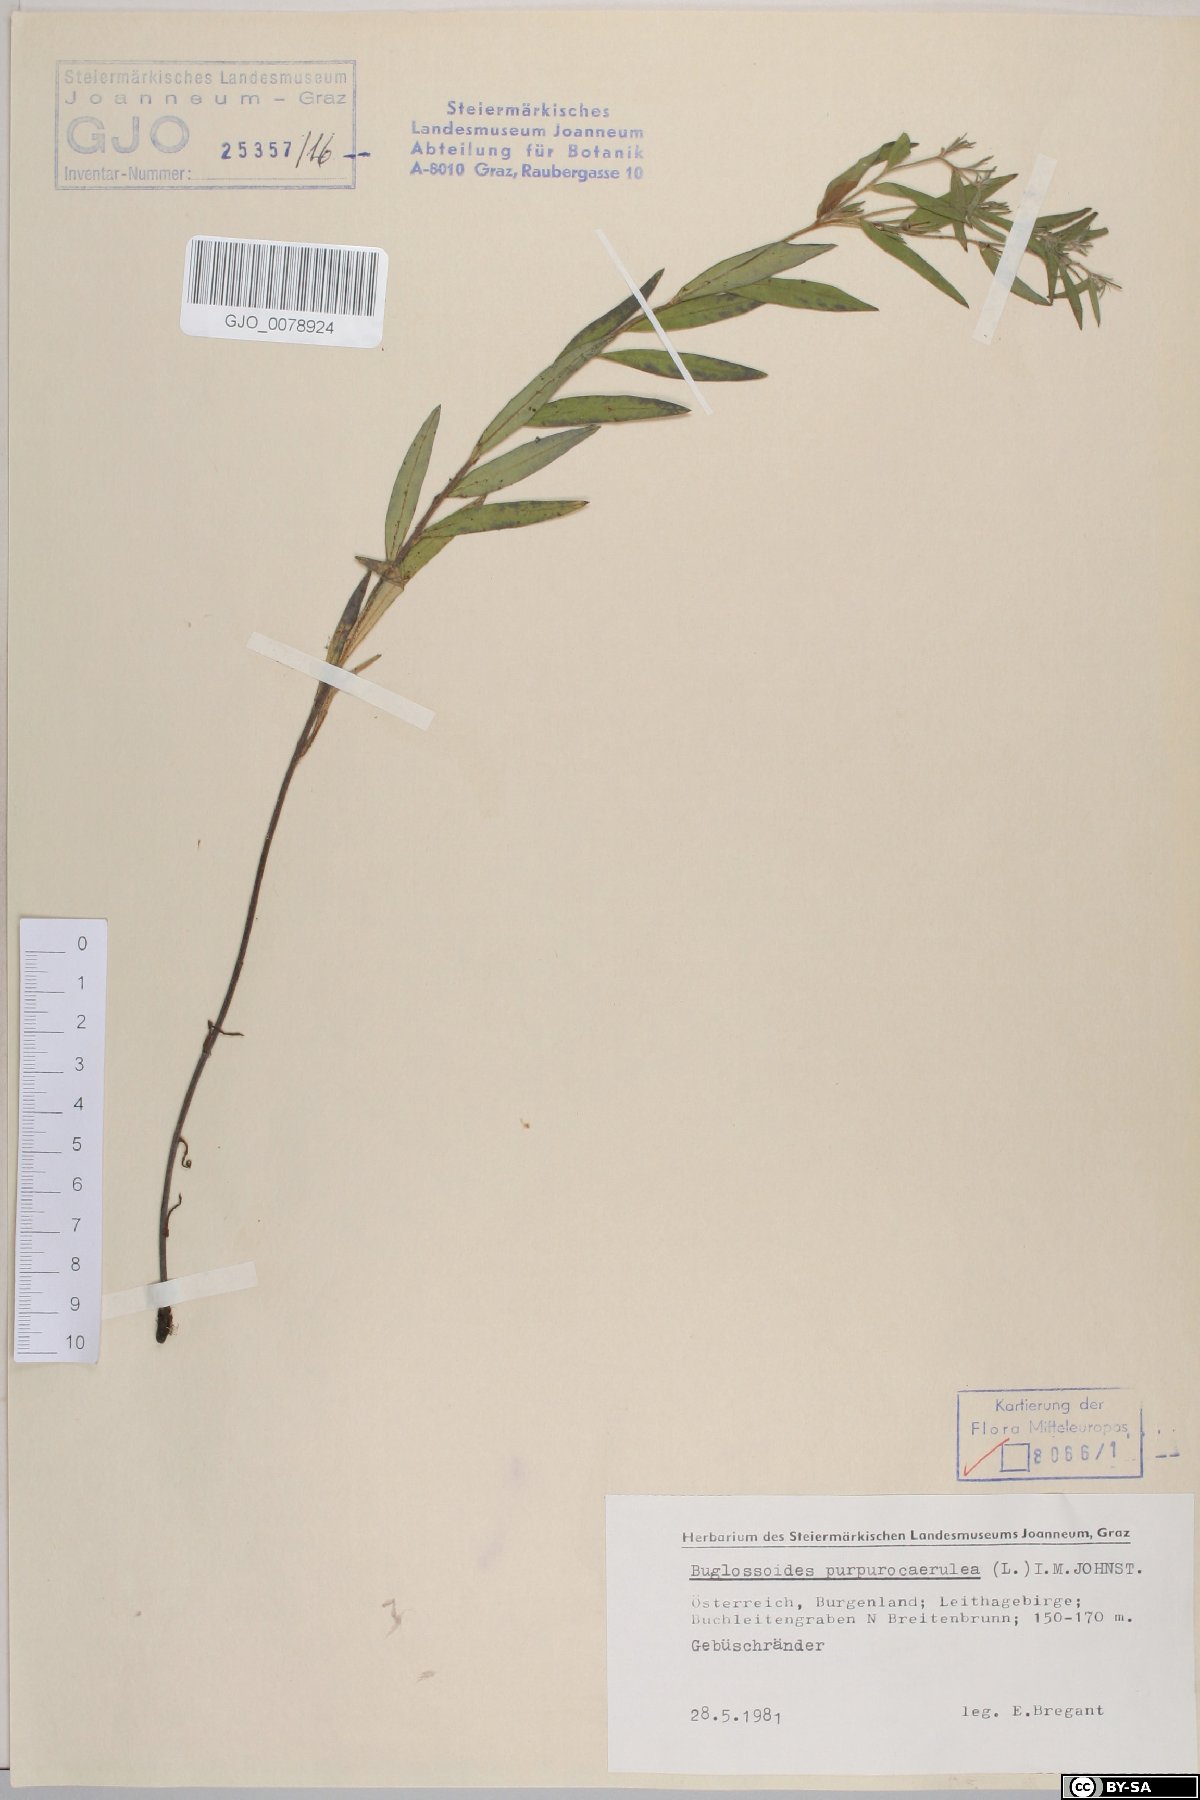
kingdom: Plantae
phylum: Tracheophyta
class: Magnoliopsida
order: Boraginales
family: Boraginaceae
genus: Aegonychon
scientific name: Aegonychon purpurocaeruleum
